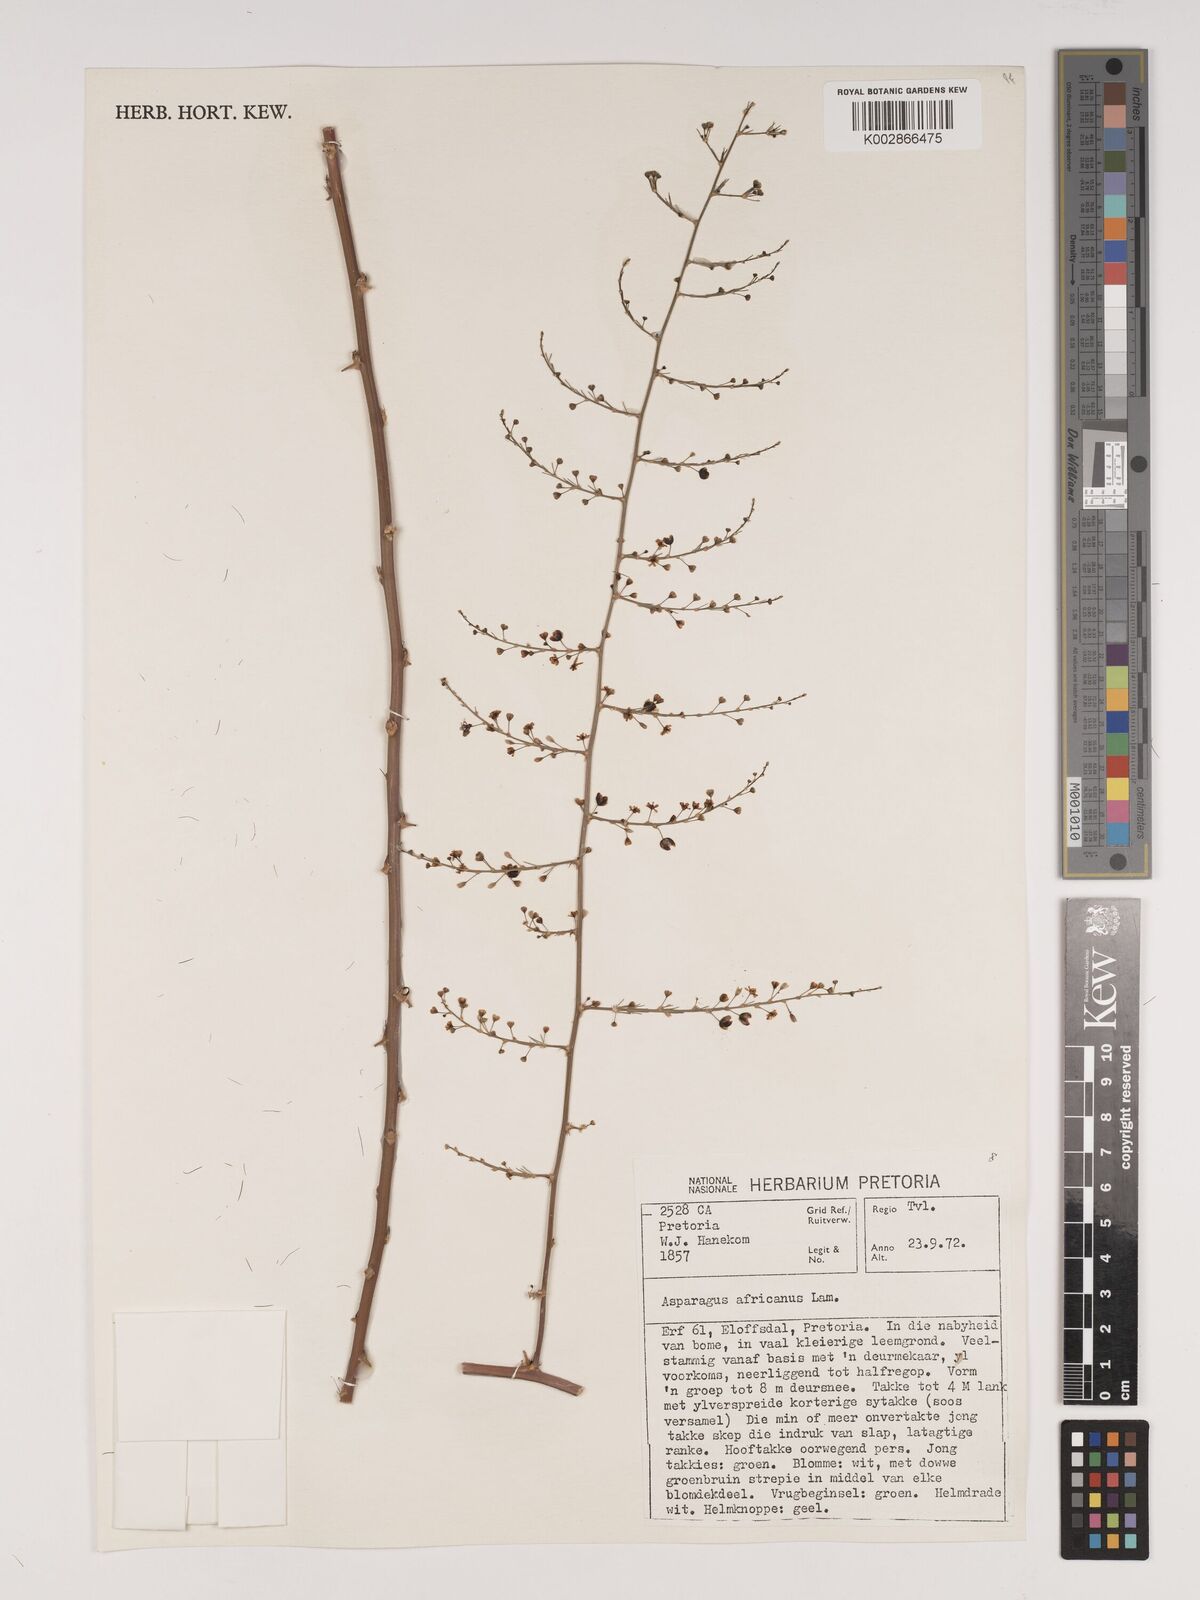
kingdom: Plantae
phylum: Tracheophyta
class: Liliopsida
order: Asparagales
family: Asparagaceae
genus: Asparagus
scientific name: Asparagus africanus
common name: Asparagus-fern
